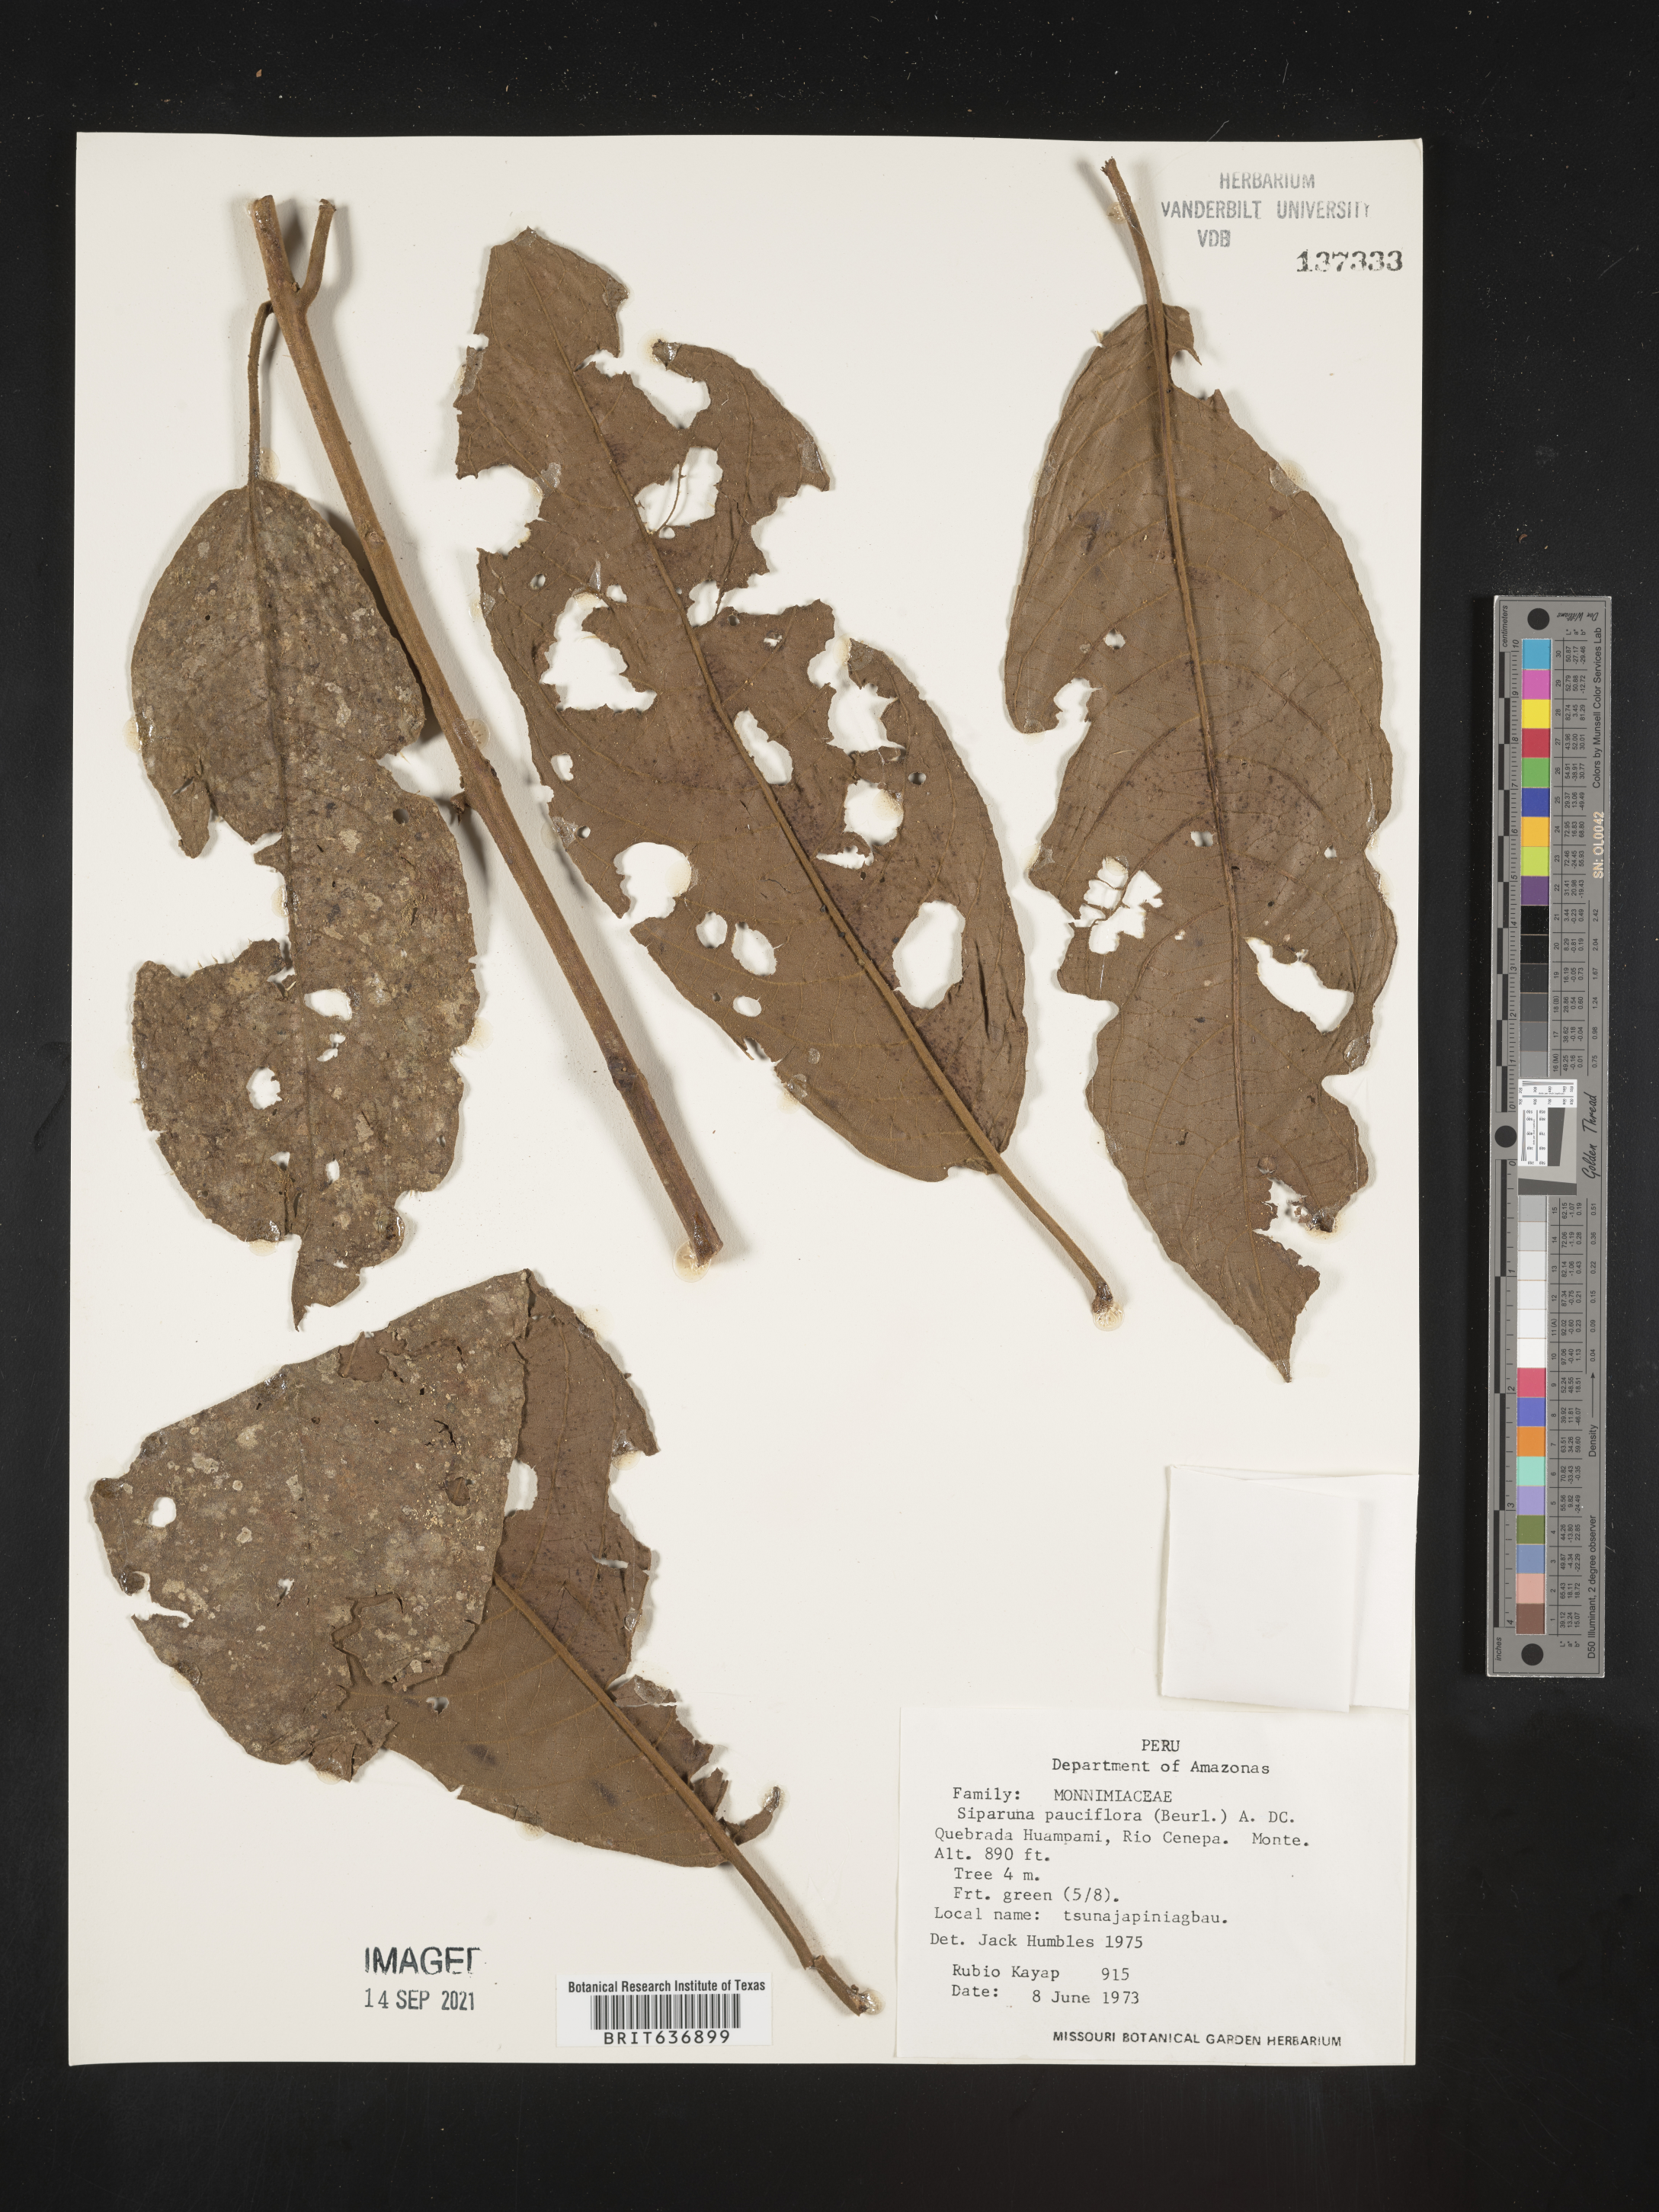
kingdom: Plantae
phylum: Tracheophyta
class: Magnoliopsida
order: Laurales
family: Siparunaceae
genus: Siparuna
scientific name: Siparuna
